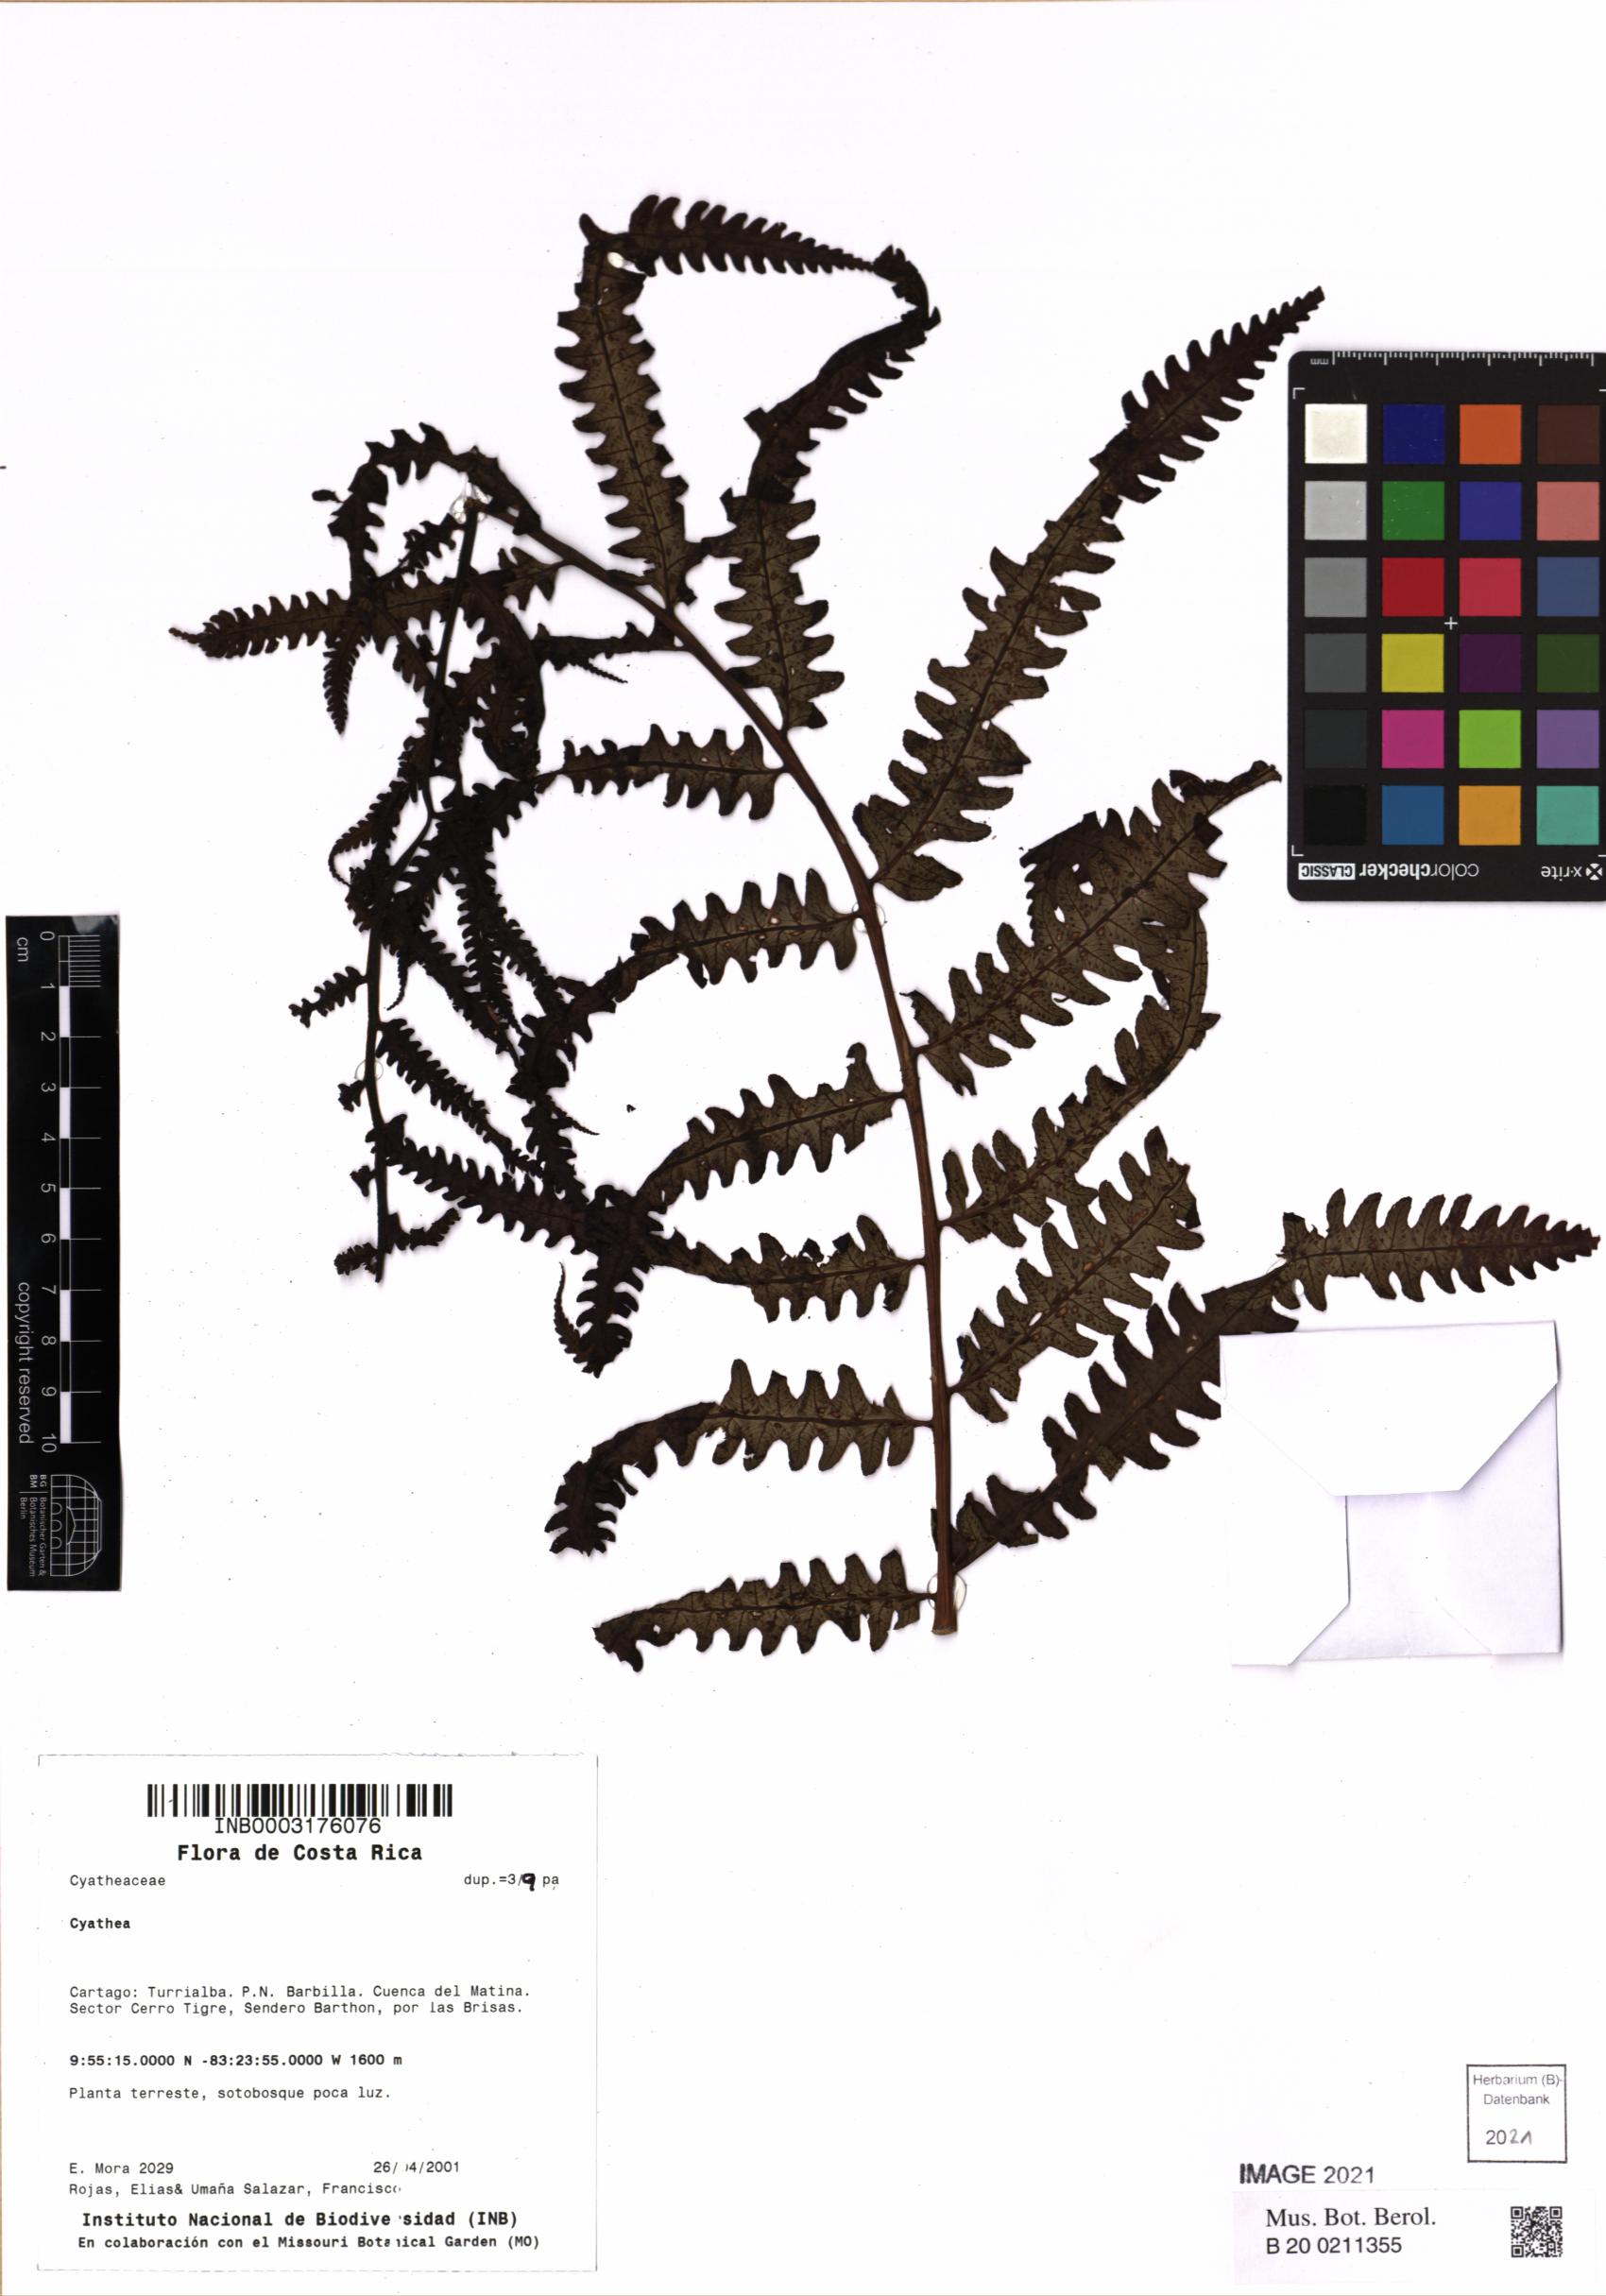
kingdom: Plantae
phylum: Tracheophyta
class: Polypodiopsida
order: Cyatheales
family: Cyatheaceae
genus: Cyathea
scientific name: Cyathea
